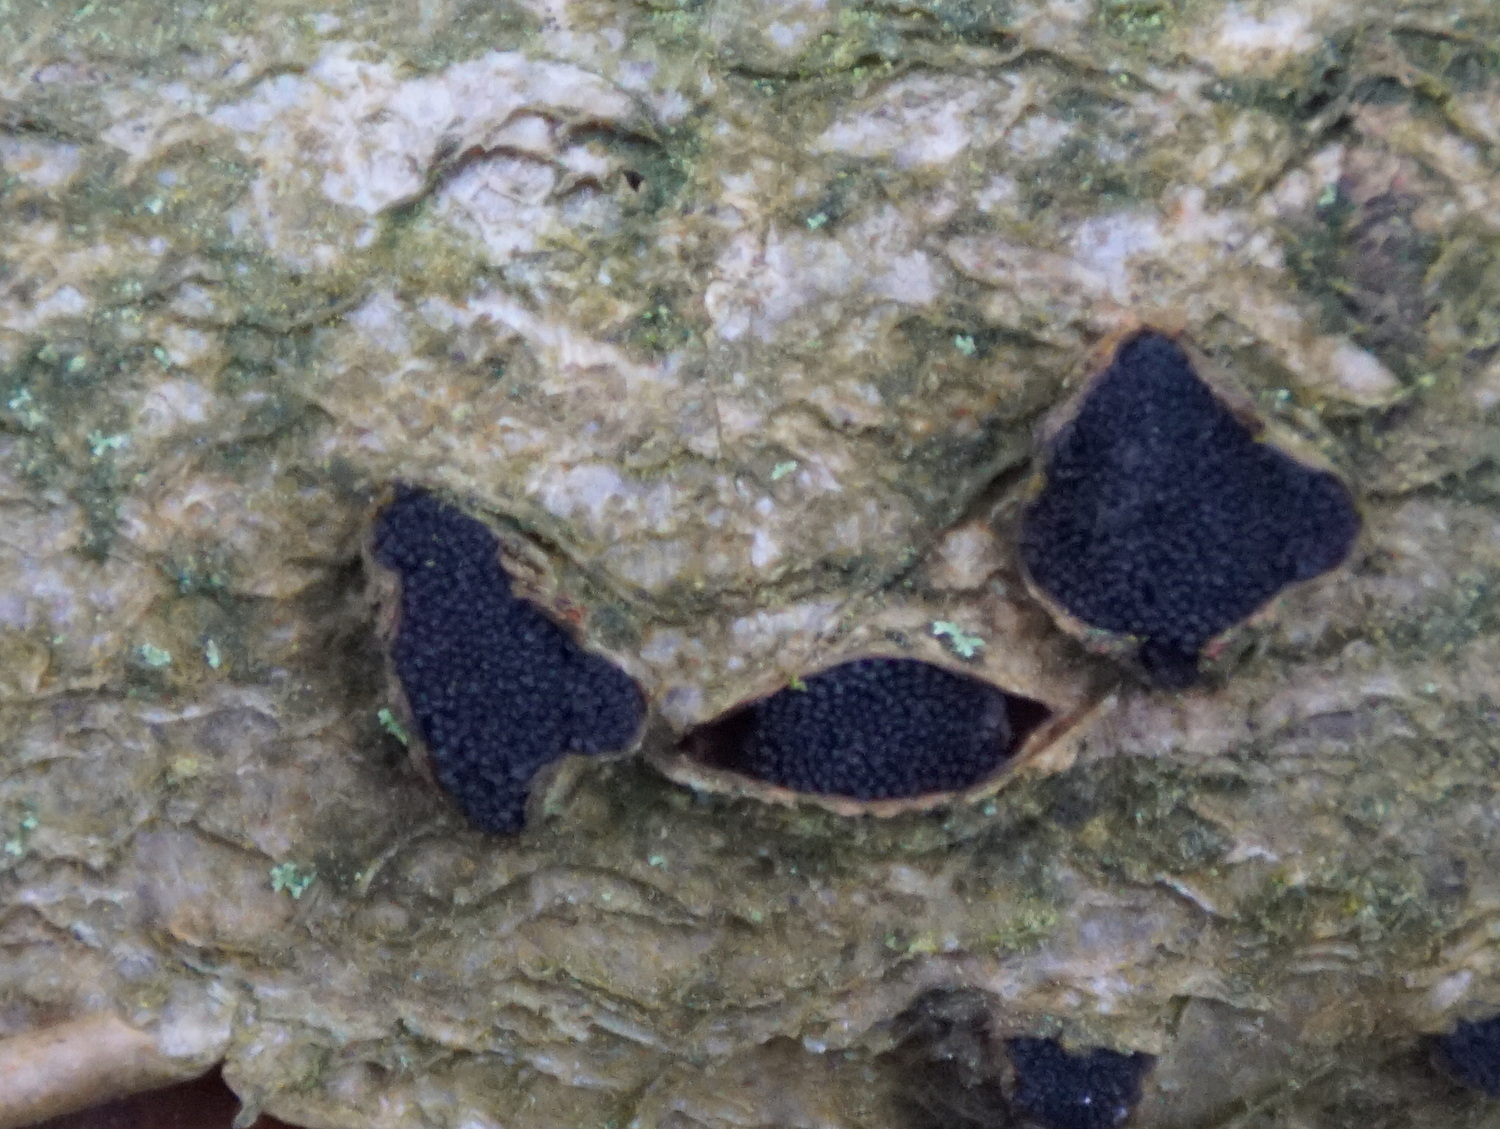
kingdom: Fungi
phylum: Ascomycota
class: Sordariomycetes
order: Xylariales
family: Diatrypaceae
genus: Eutypella
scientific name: Eutypella sorbi
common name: rønne-kulskorpe
